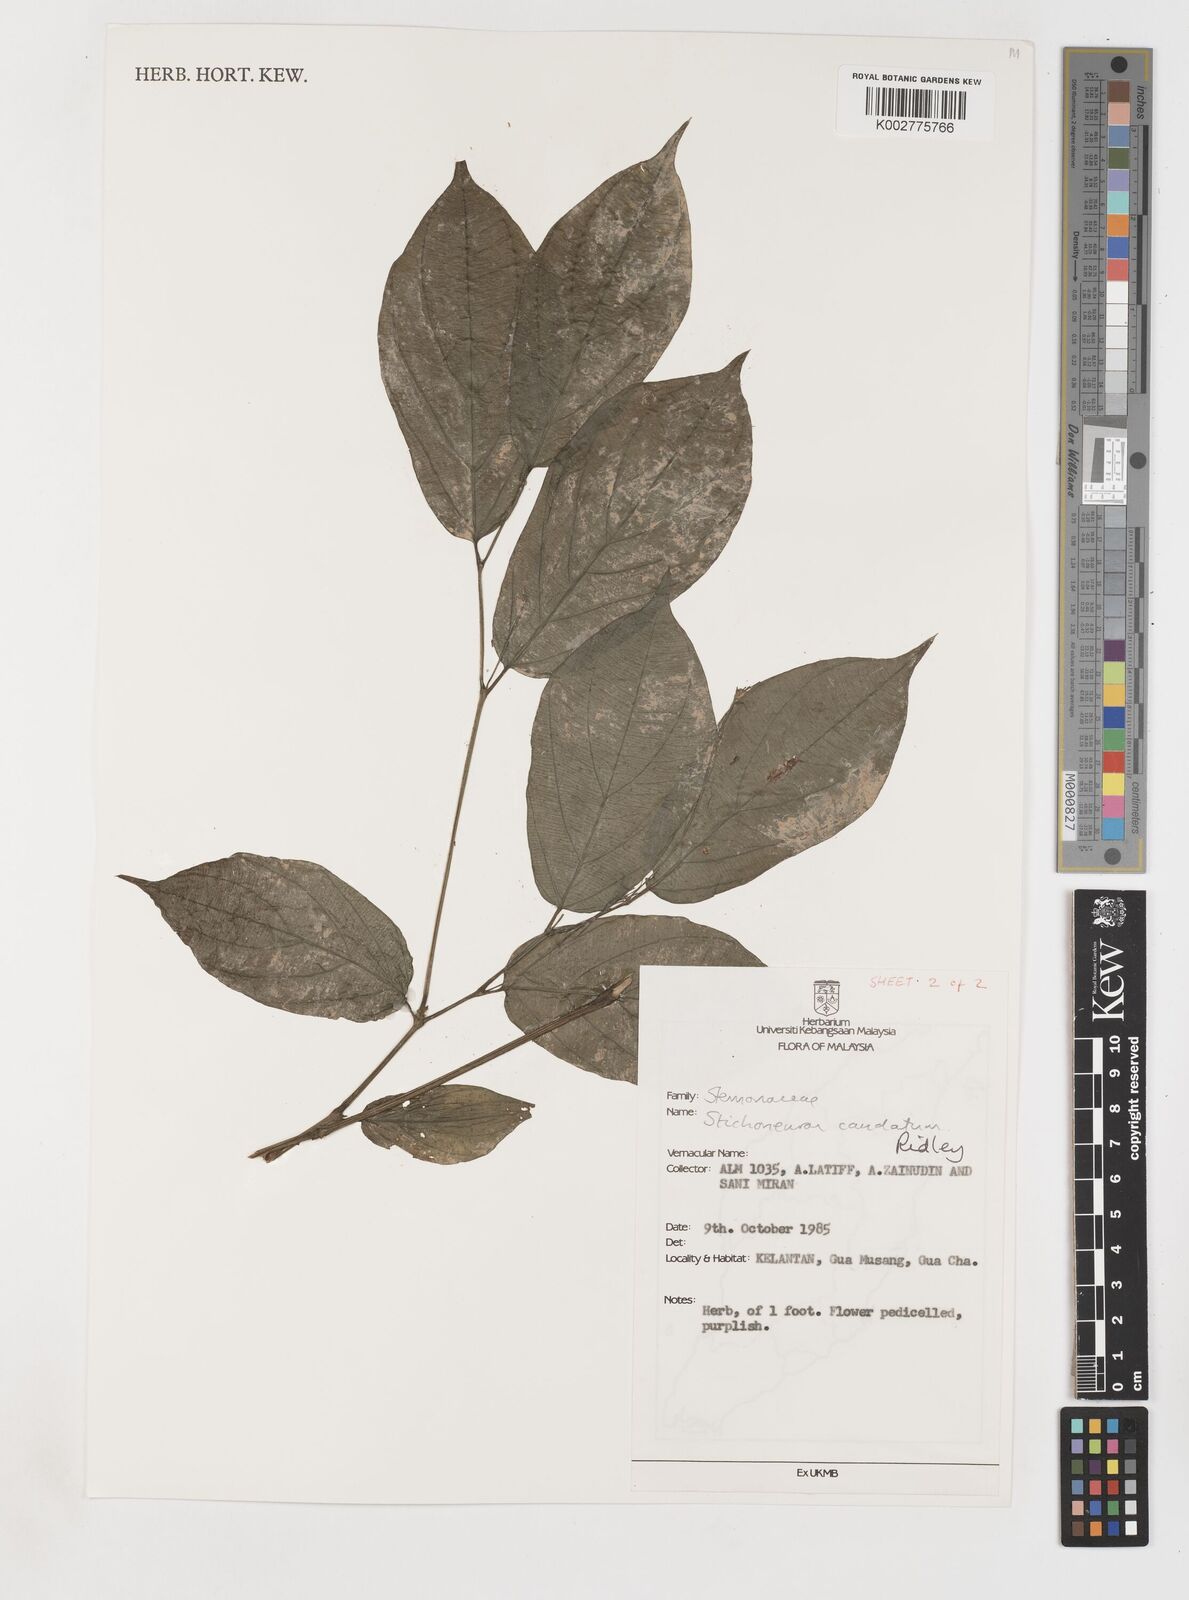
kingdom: Plantae
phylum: Tracheophyta
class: Liliopsida
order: Pandanales
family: Stemonaceae
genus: Stichoneuron
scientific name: Stichoneuron caudatum
